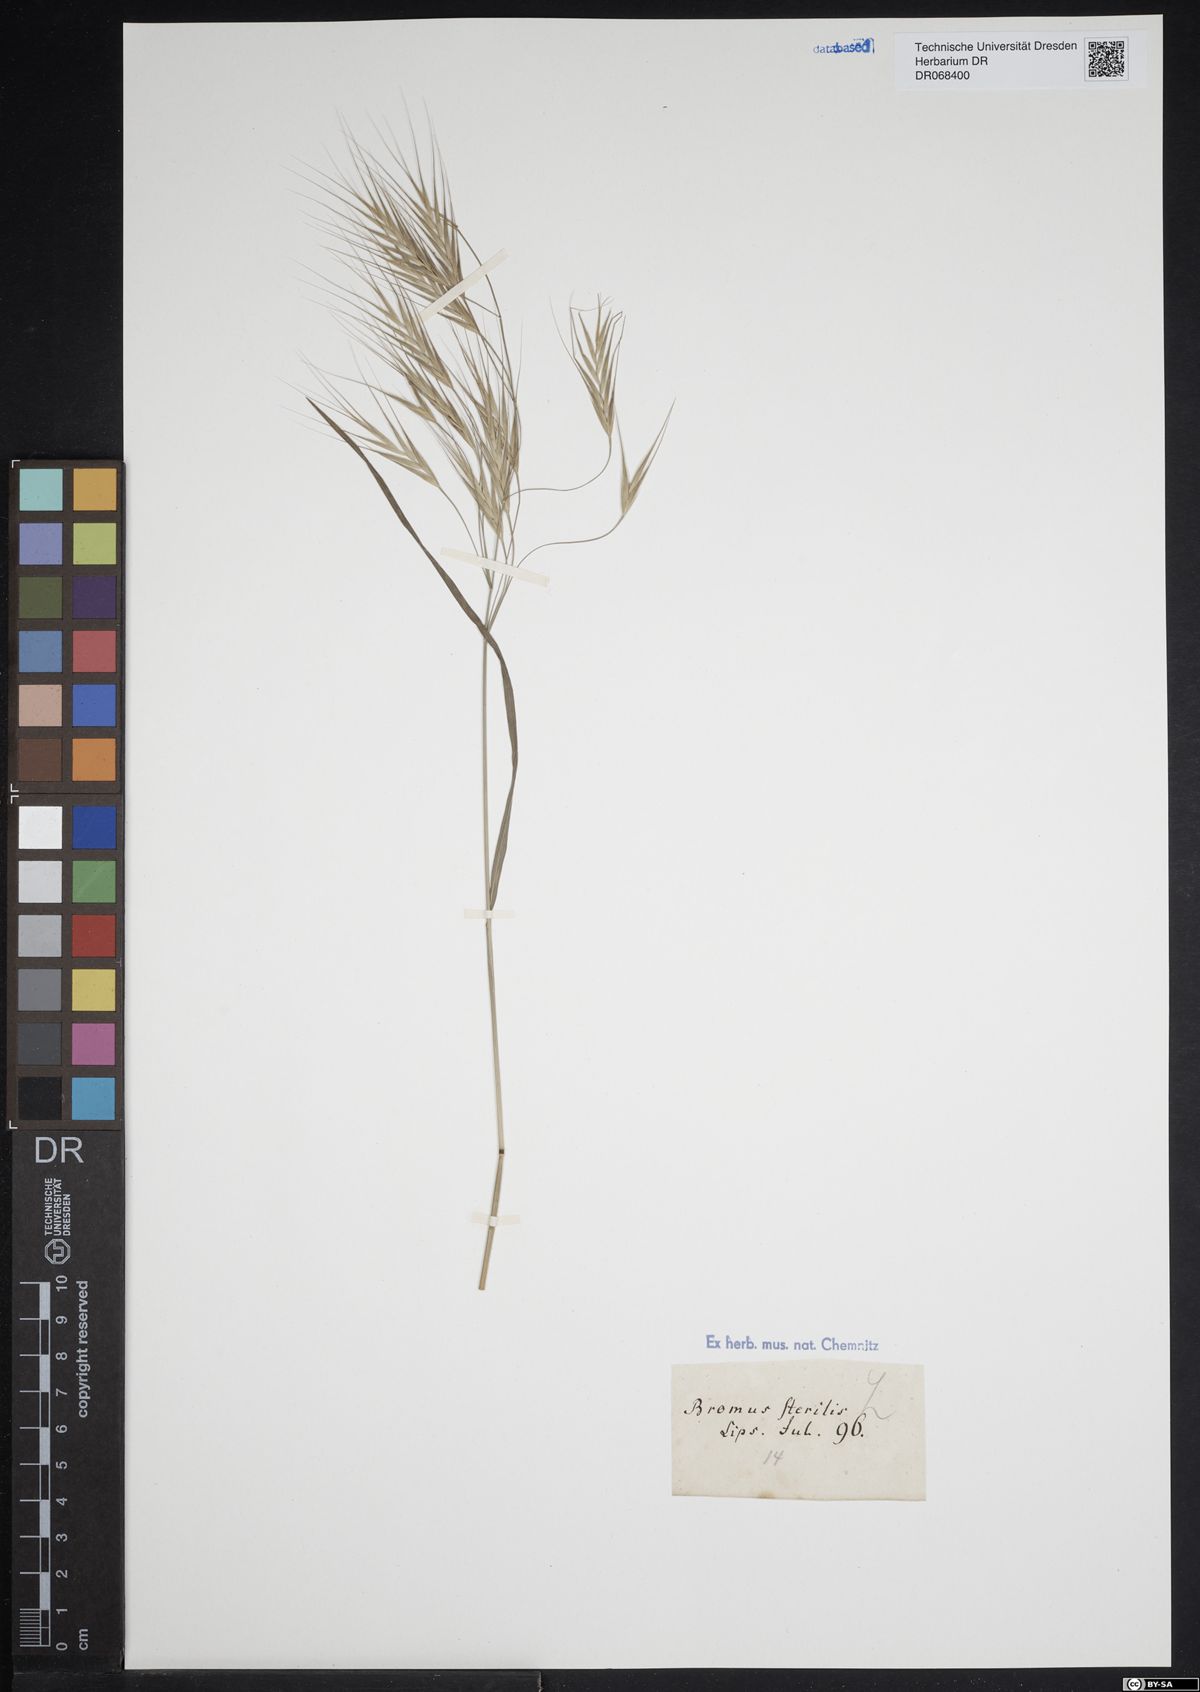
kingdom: Plantae
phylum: Tracheophyta
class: Liliopsida
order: Poales
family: Poaceae
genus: Bromus
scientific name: Bromus sterilis
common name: Poverty brome
